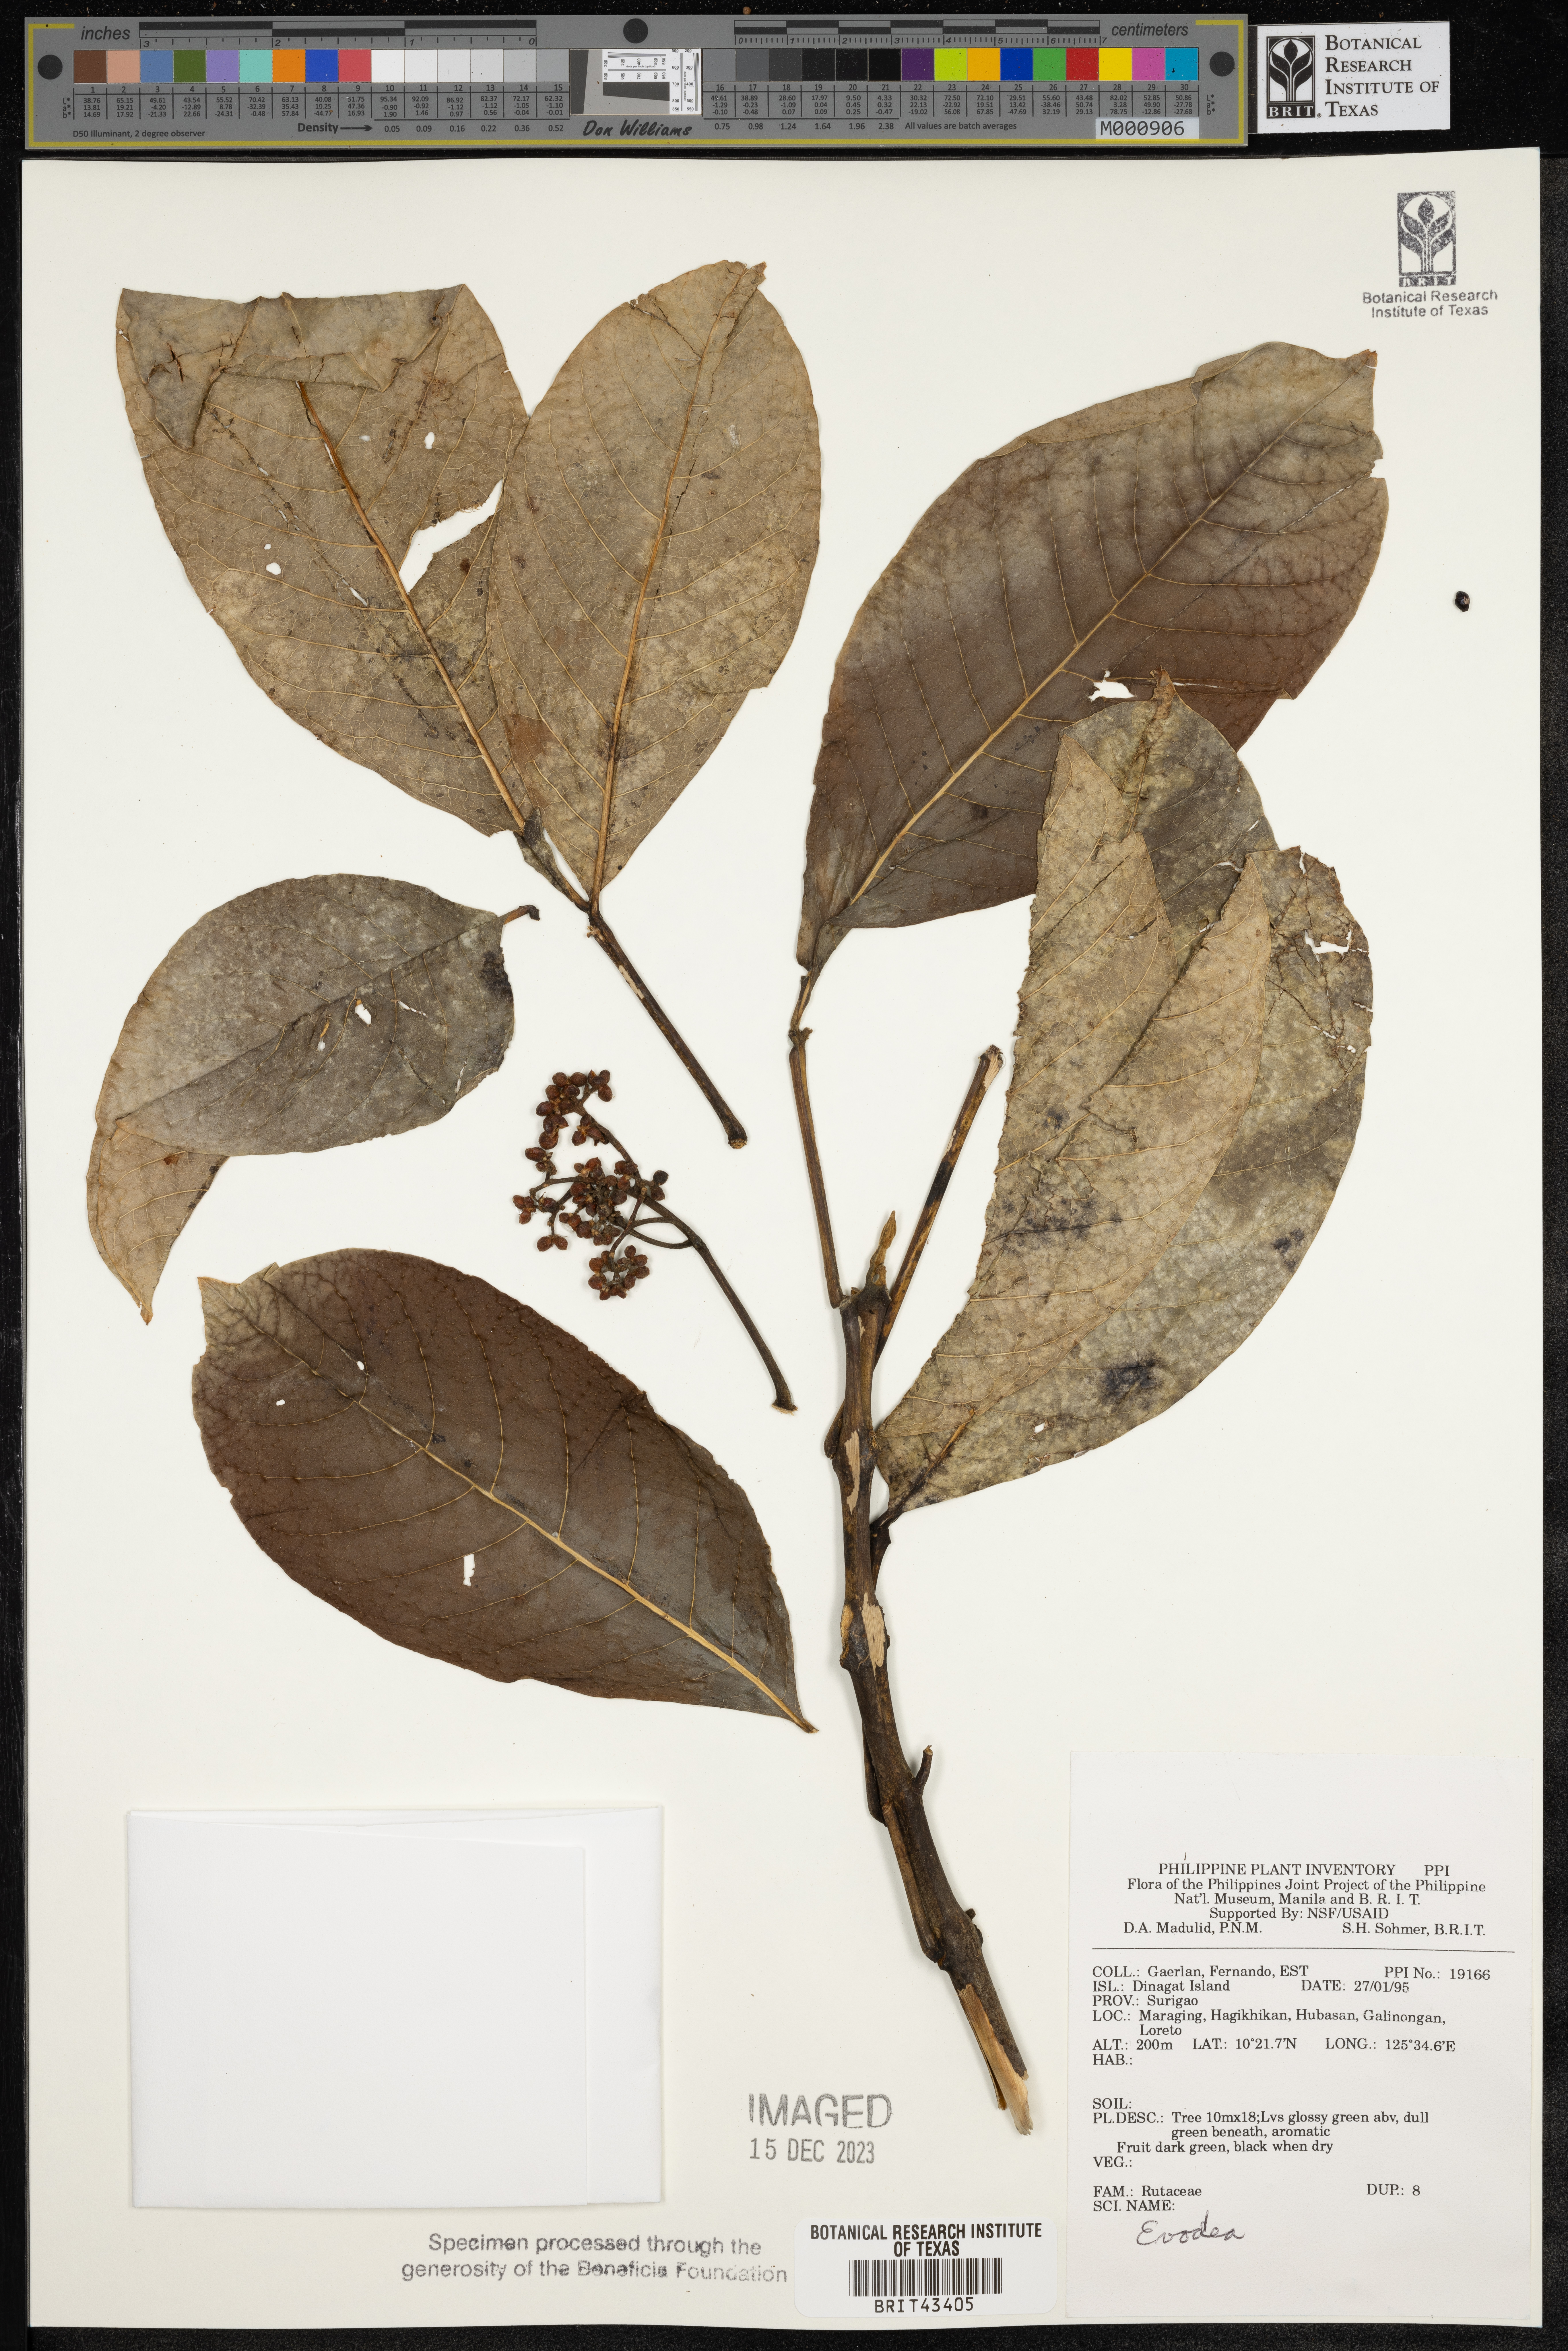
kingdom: Plantae
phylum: Tracheophyta
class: Magnoliopsida
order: Sapindales
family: Rutaceae
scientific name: Rutaceae
